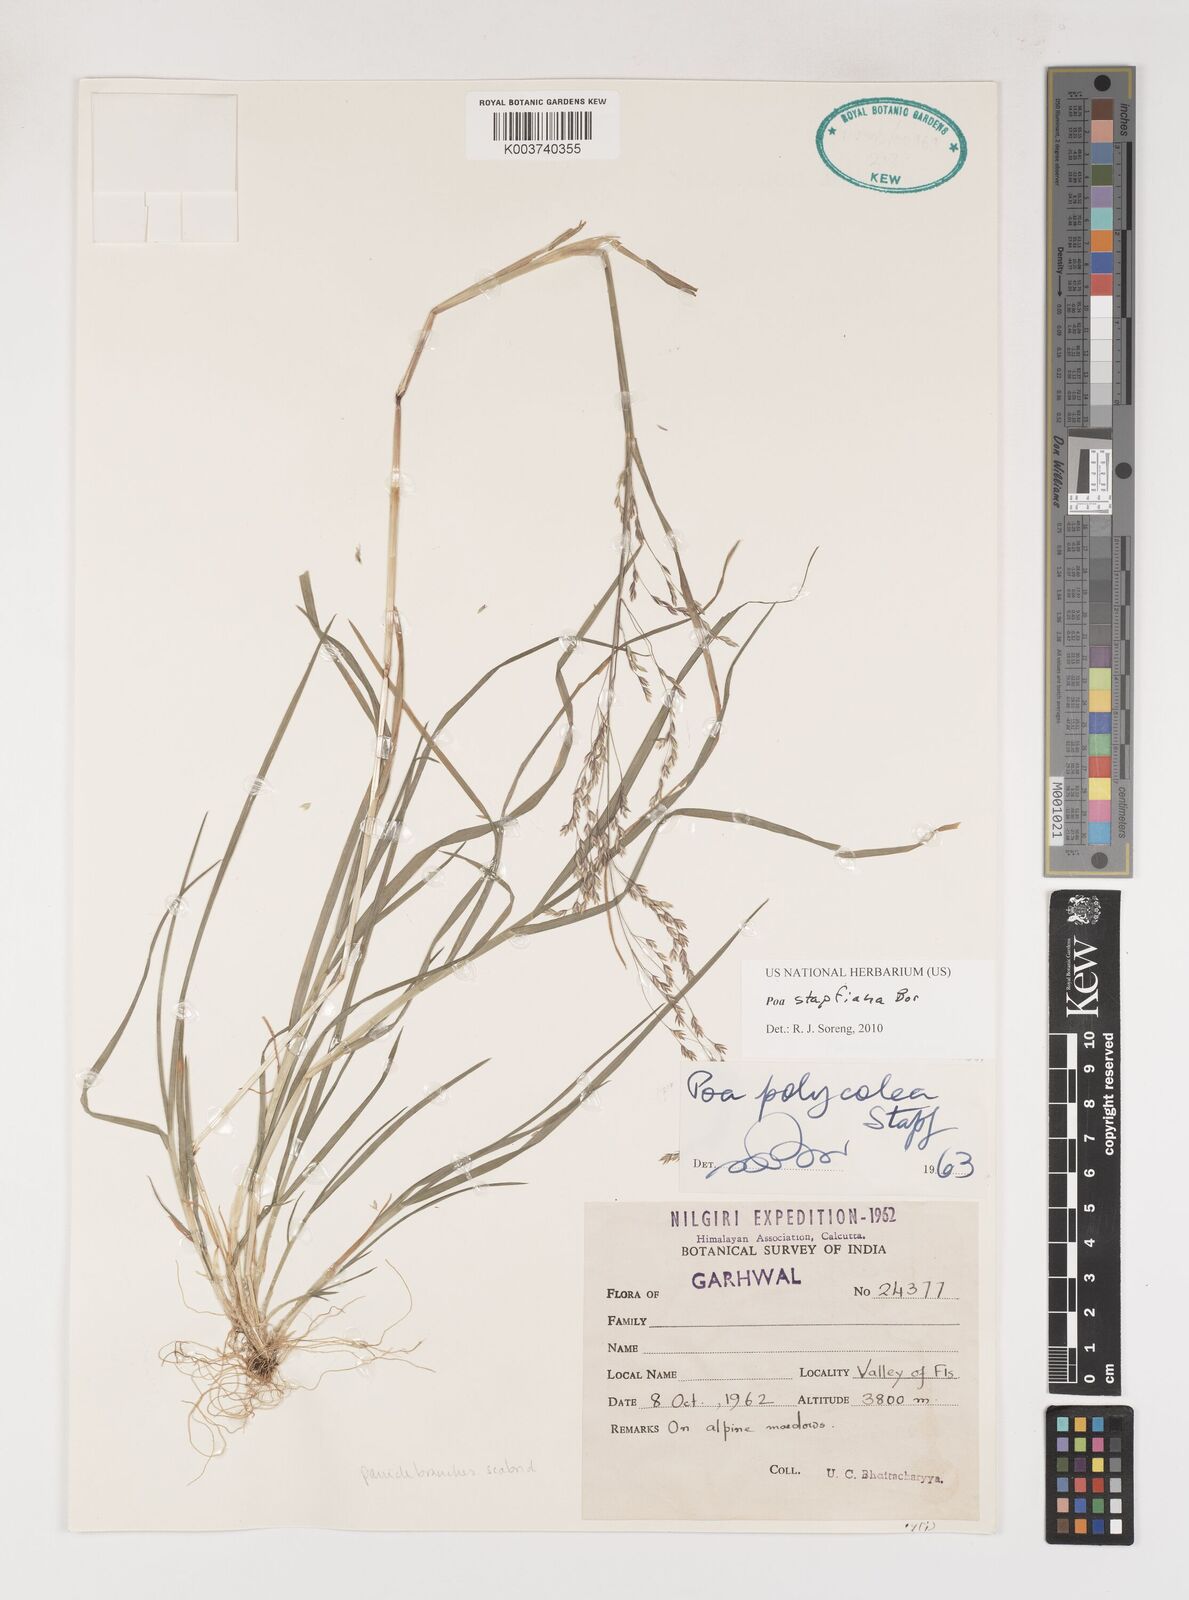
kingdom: Plantae
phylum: Tracheophyta
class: Liliopsida
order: Poales
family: Poaceae
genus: Poa
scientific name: Poa stapfiana
